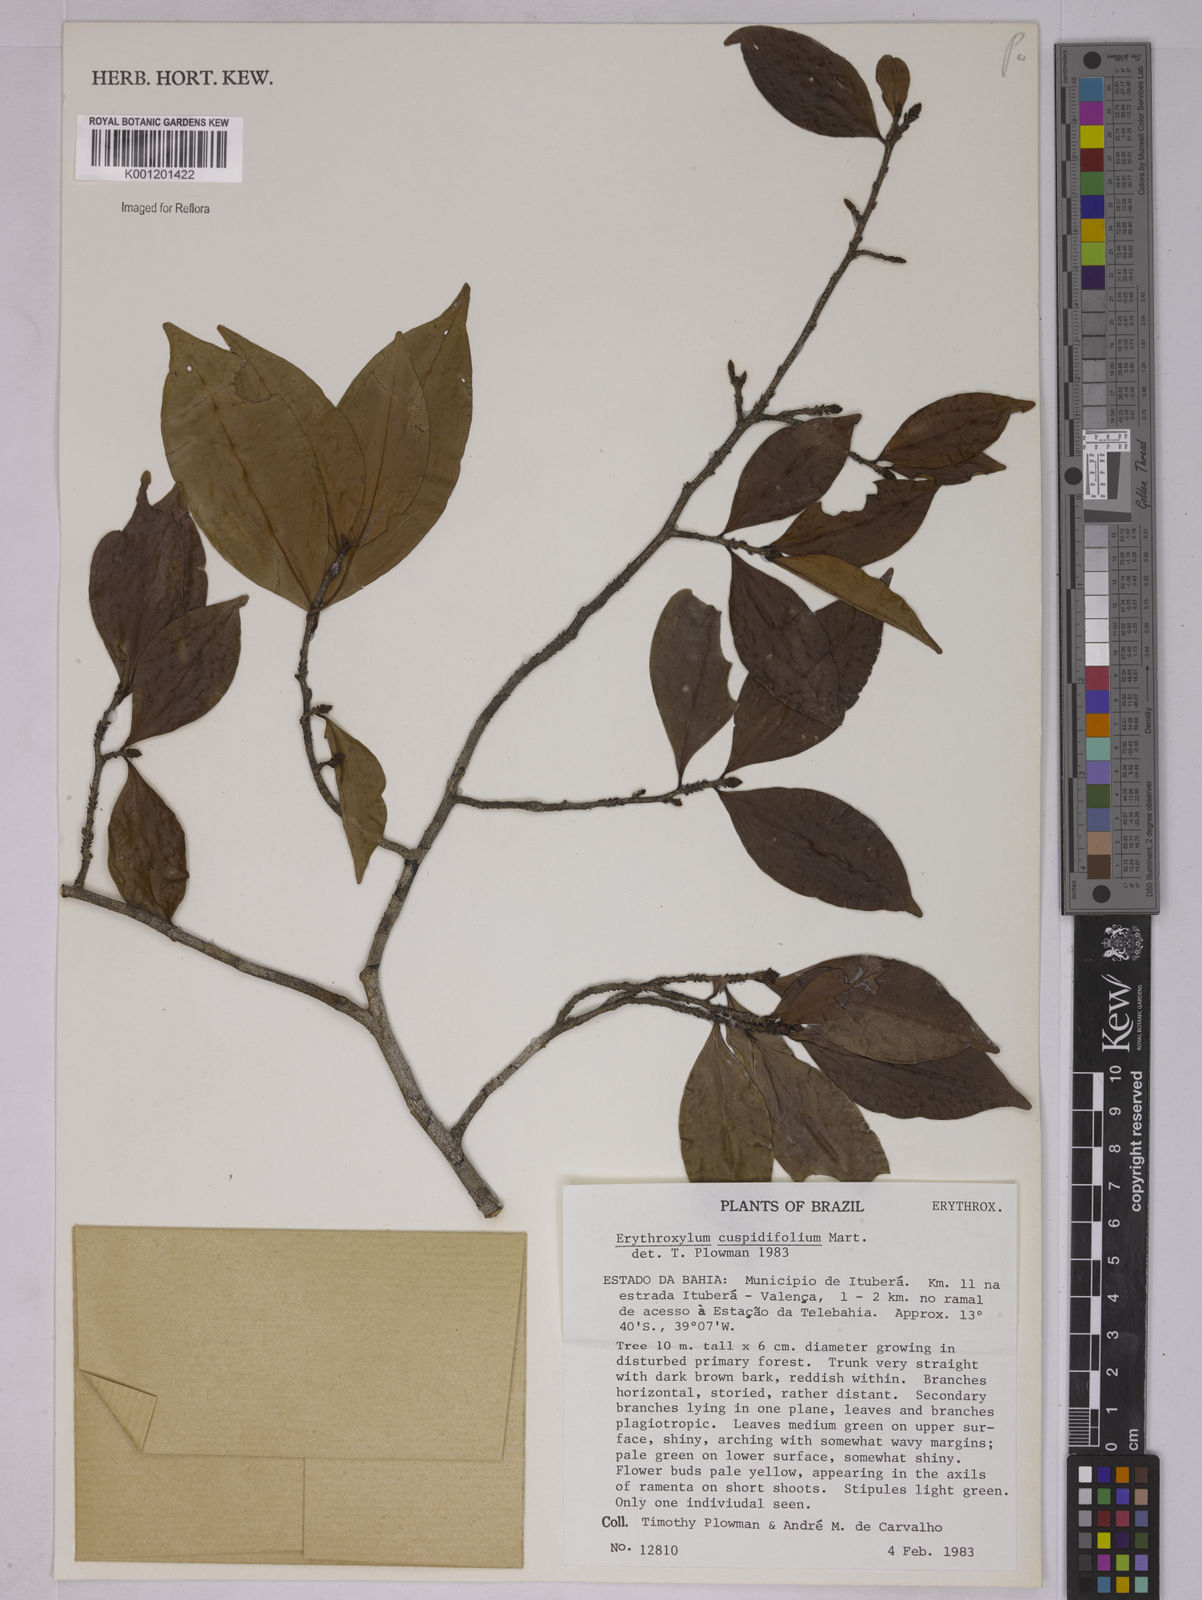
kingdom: Plantae
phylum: Tracheophyta
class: Magnoliopsida
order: Malpighiales
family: Erythroxylaceae
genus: Erythroxylum
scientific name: Erythroxylum cuspidifolium
